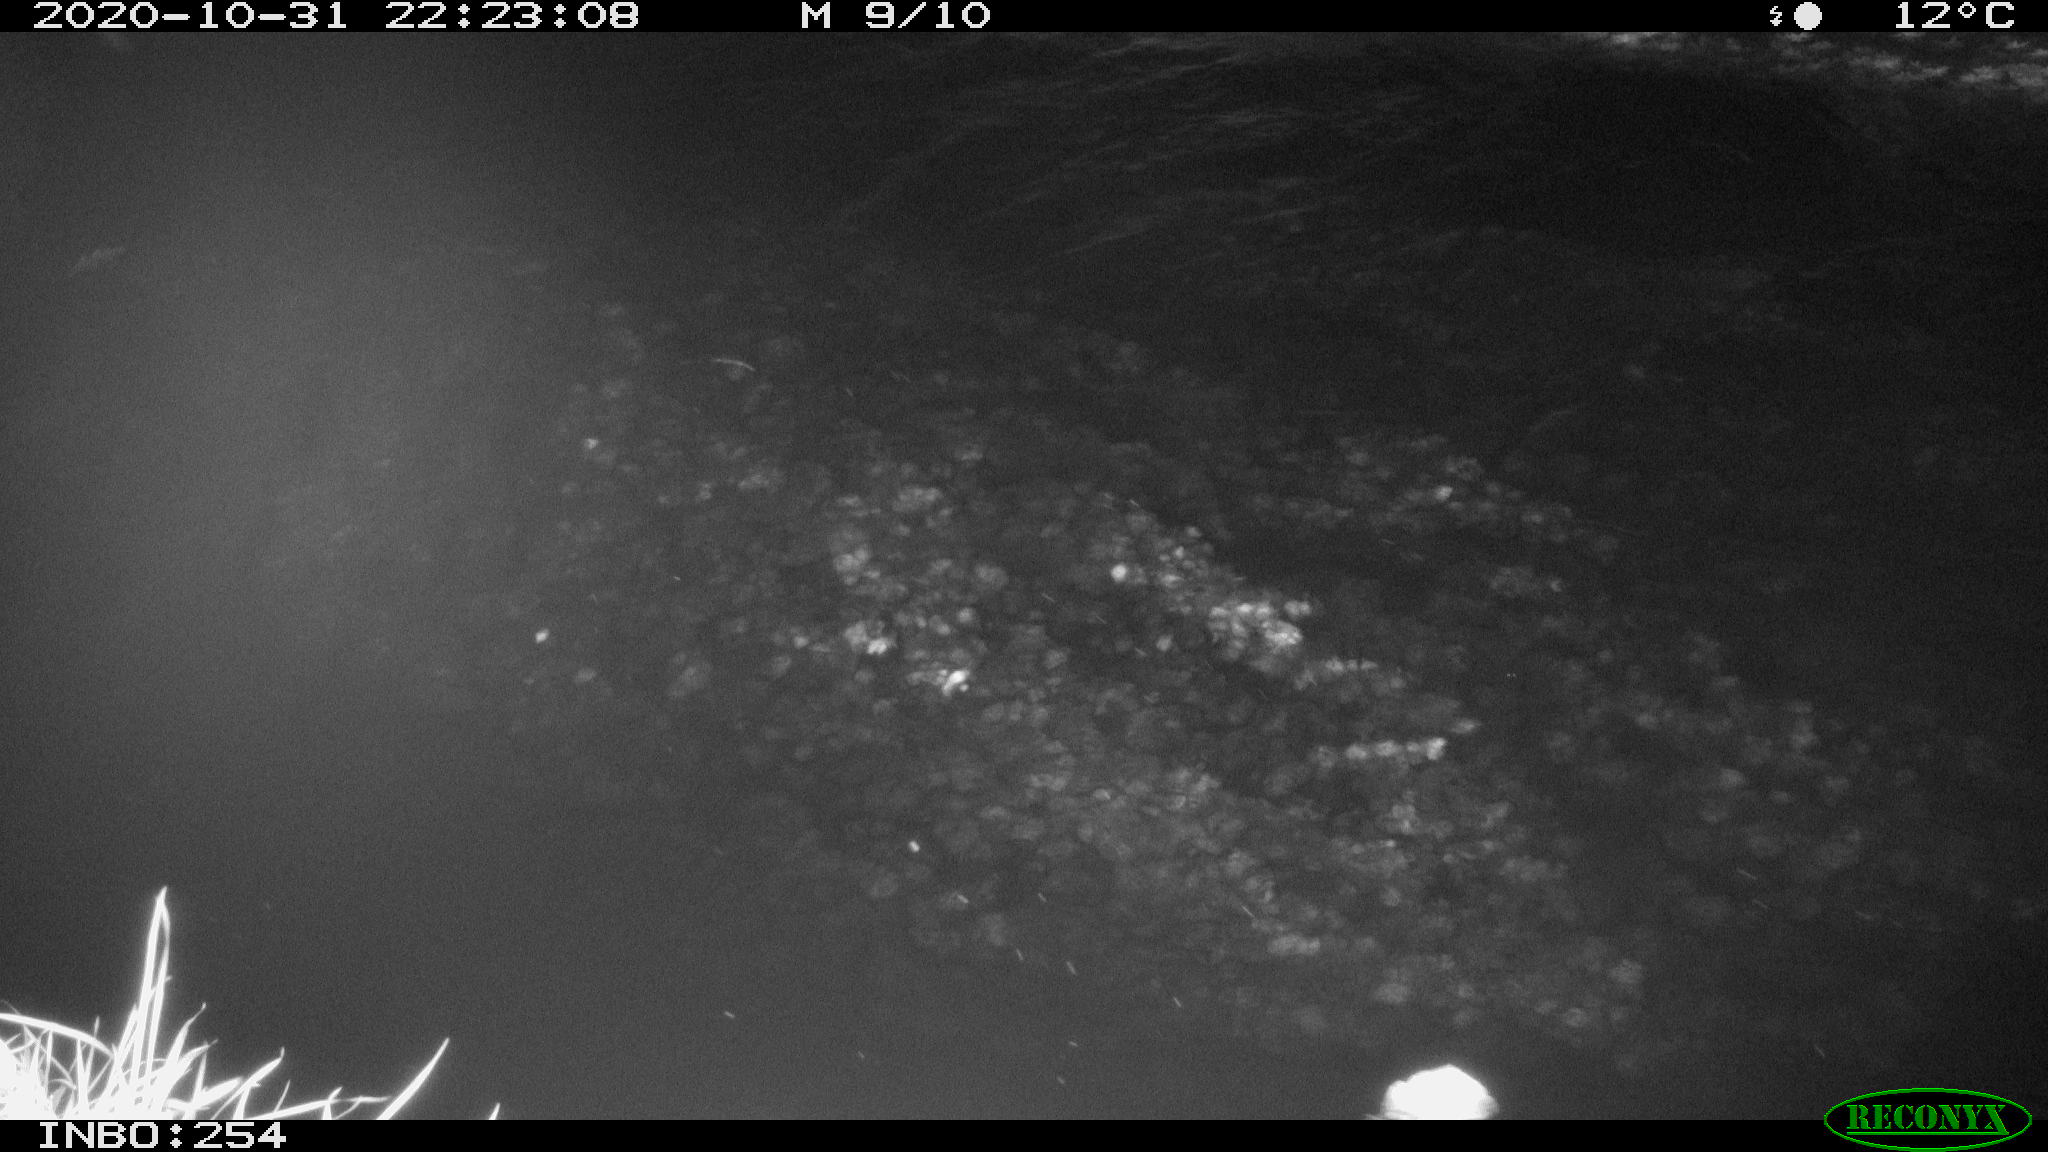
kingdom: Animalia
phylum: Chordata
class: Aves
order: Anseriformes
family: Anatidae
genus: Anas
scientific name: Anas platyrhynchos
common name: Mallard
